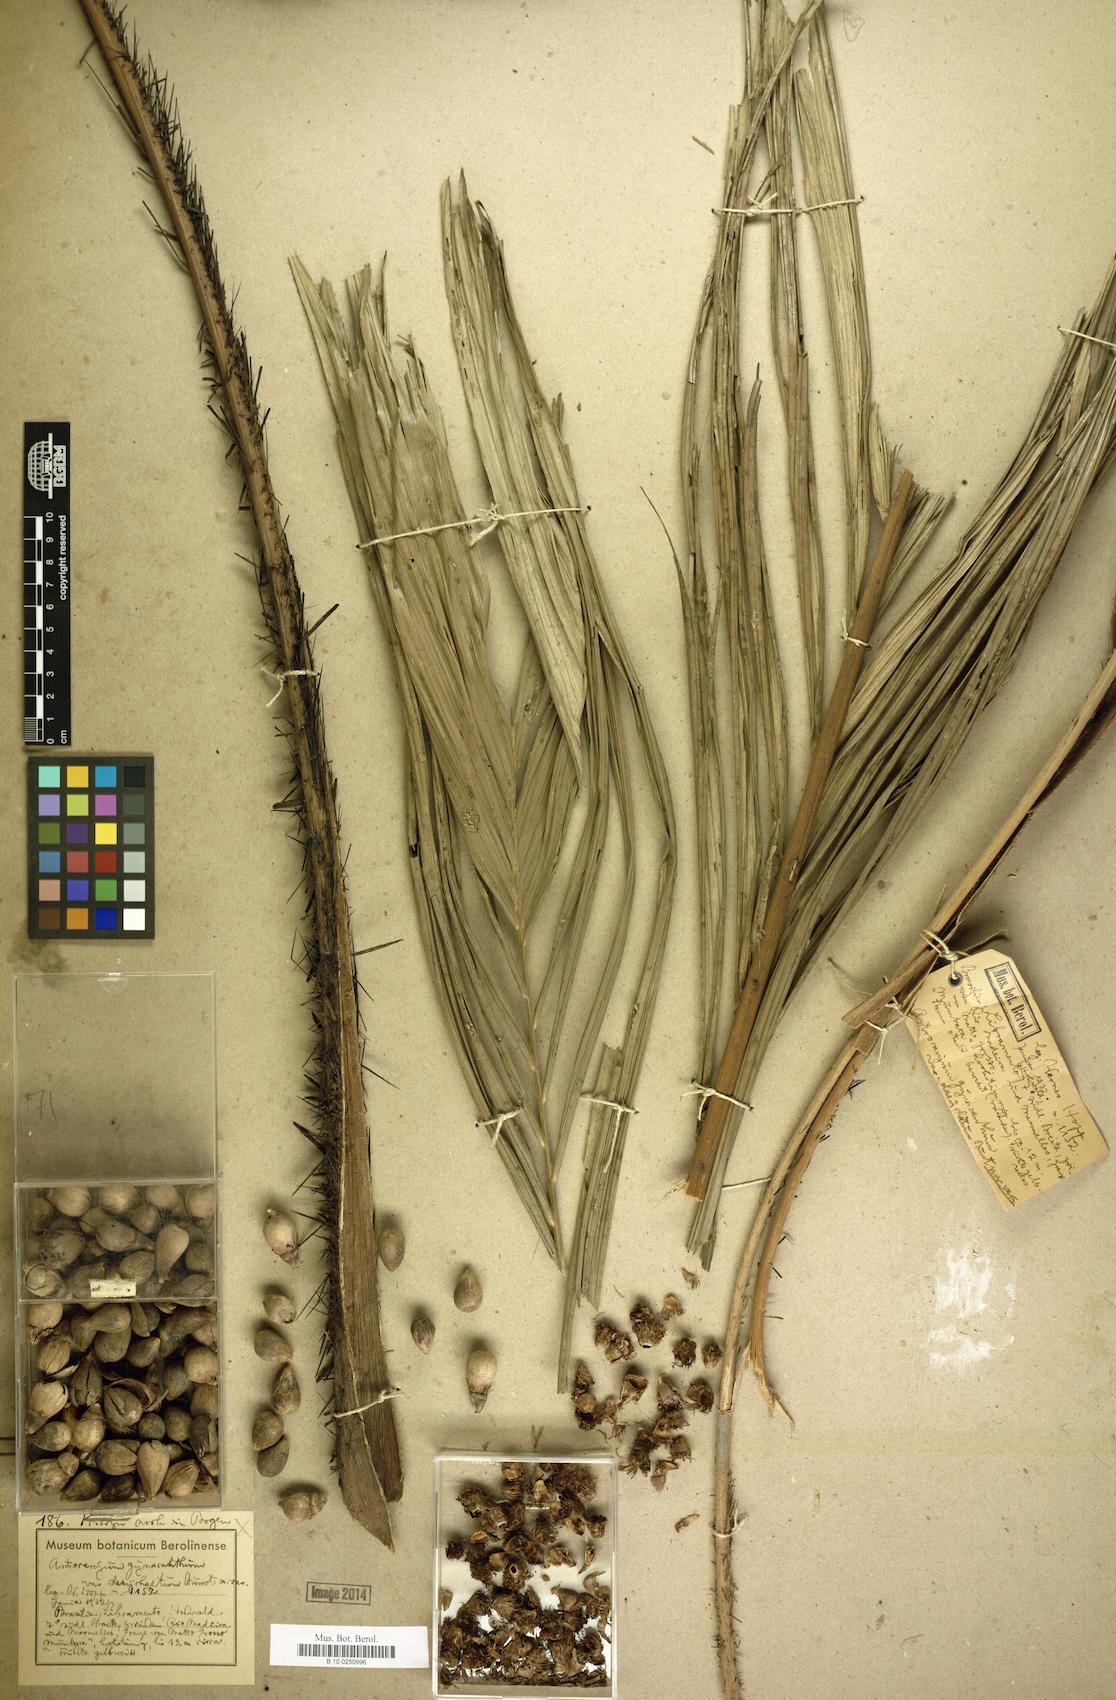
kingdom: Plantae
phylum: Tracheophyta
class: Liliopsida
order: Arecales
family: Arecaceae
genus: Astrocaryum
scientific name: Astrocaryum aculeatum
